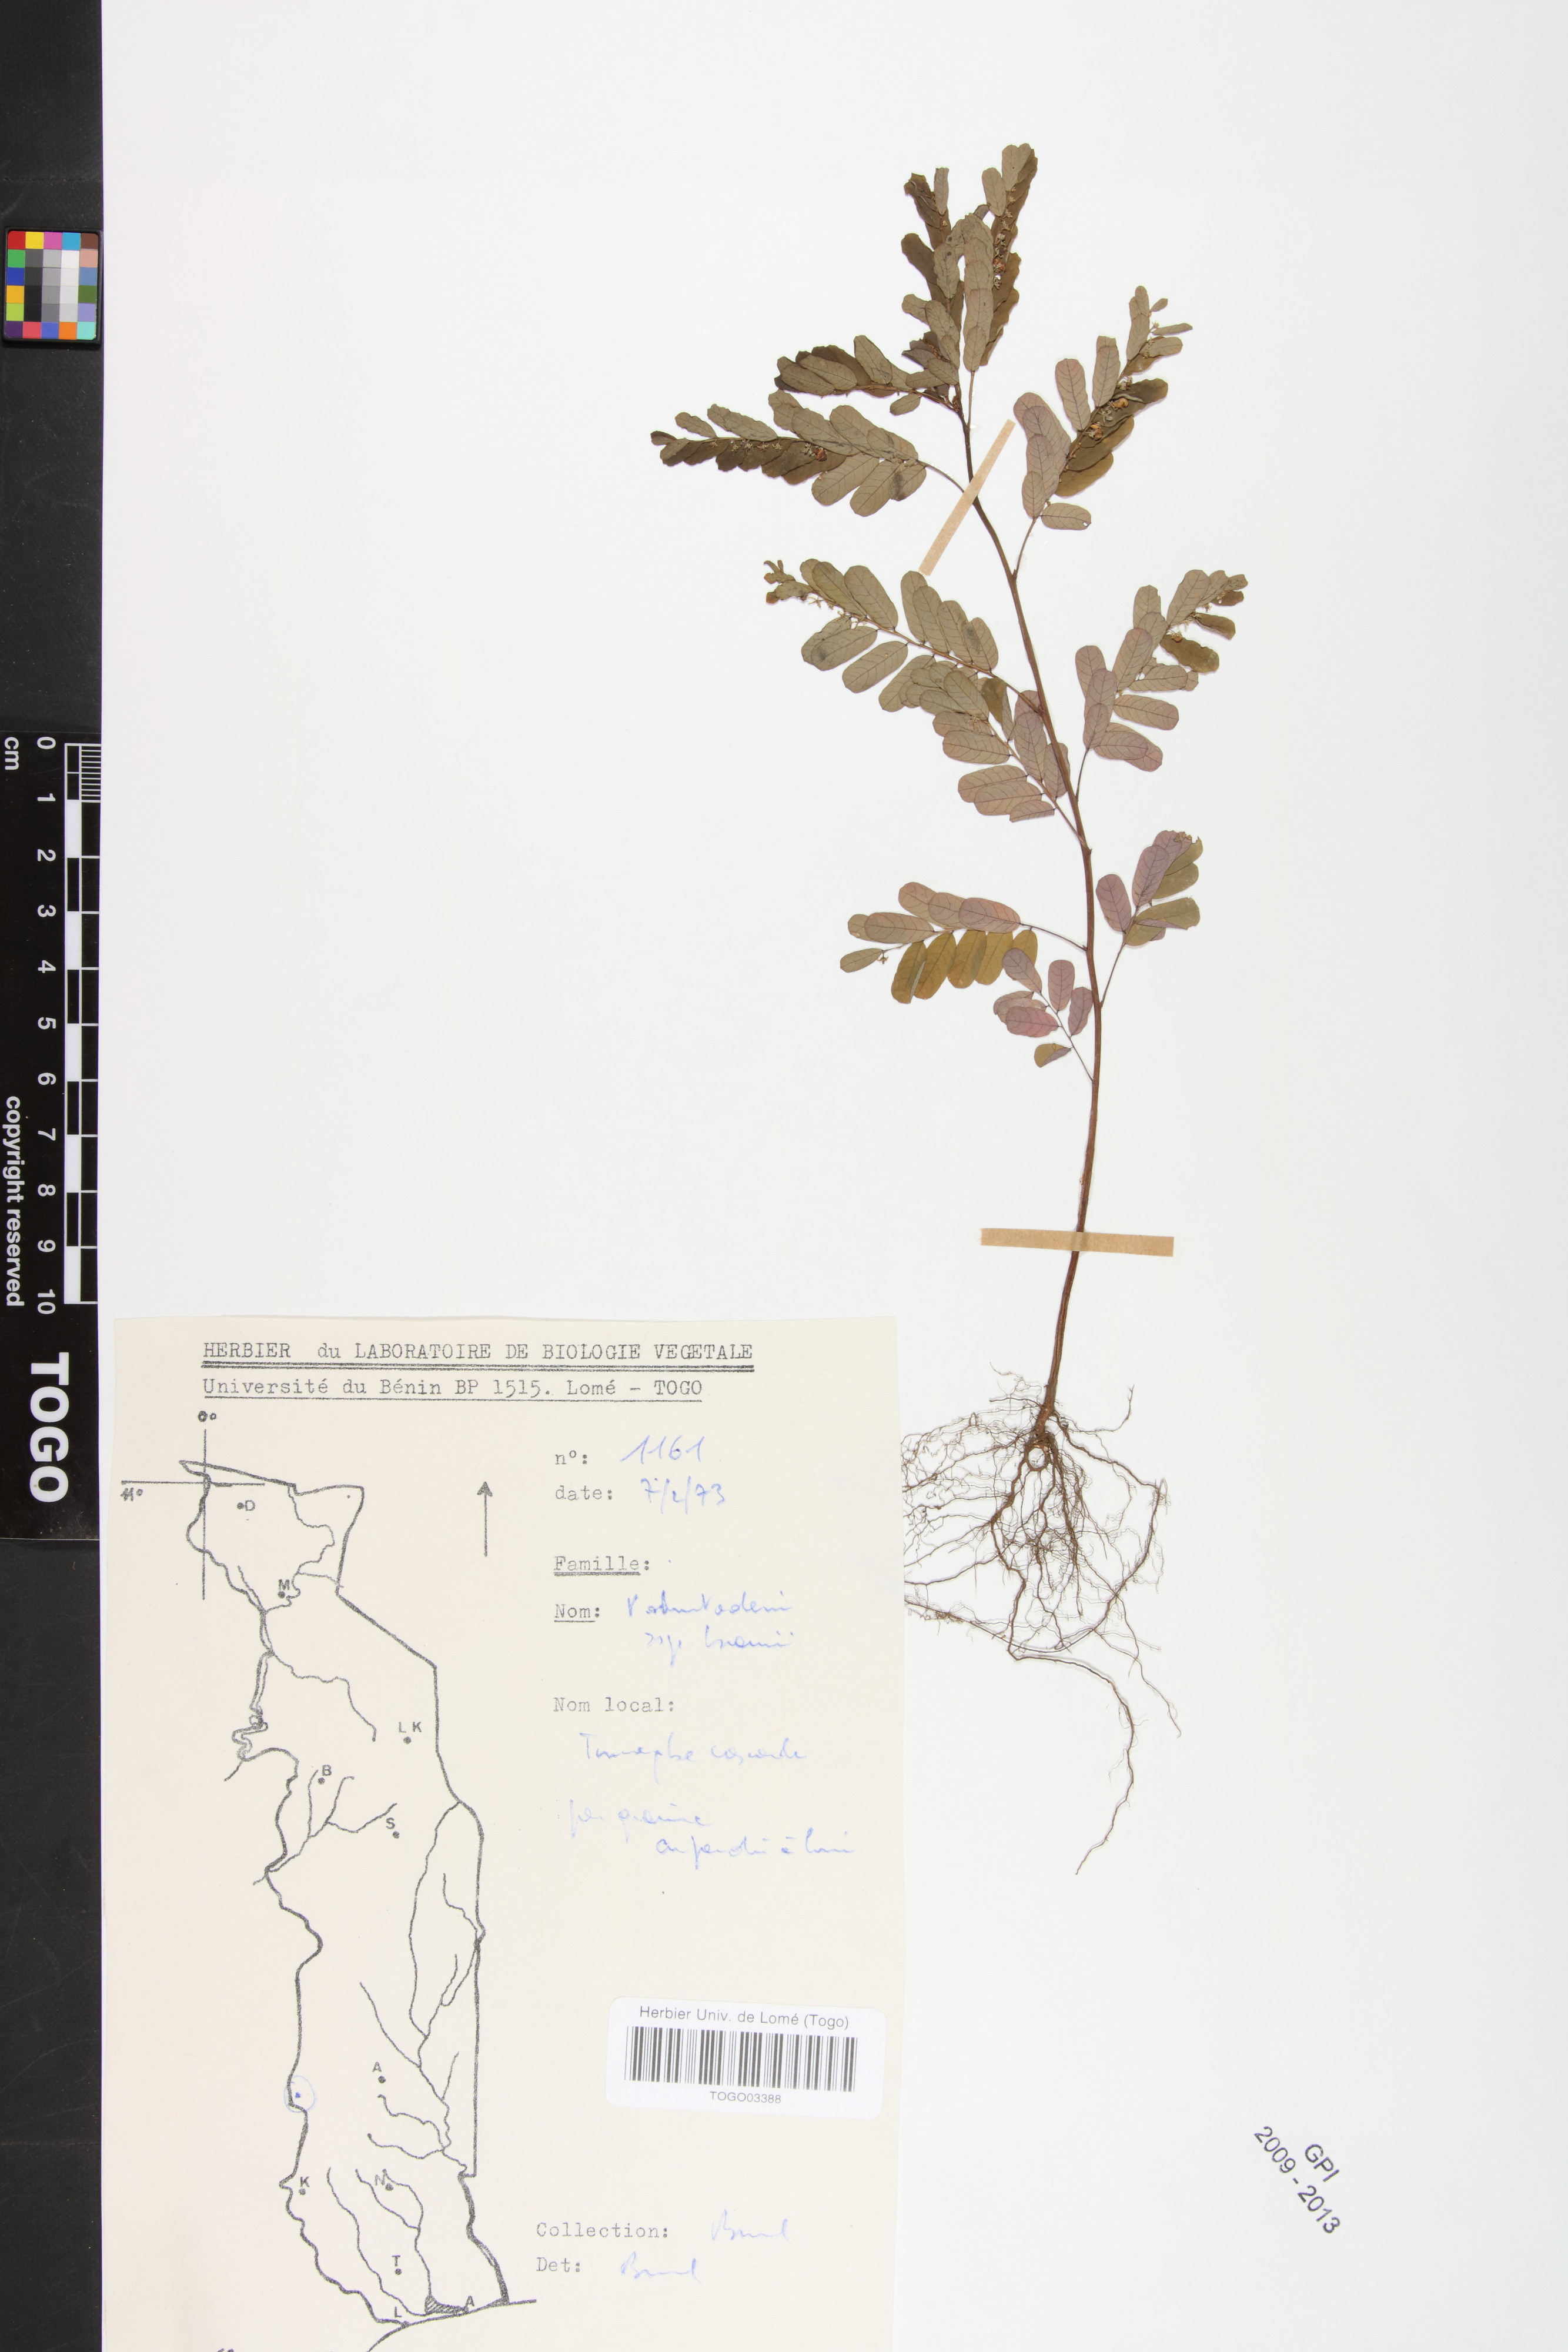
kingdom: Plantae
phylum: Tracheophyta
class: Magnoliopsida
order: Malpighiales
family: Phyllanthaceae
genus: Phyllanthus
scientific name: Phyllanthus odontadenius
